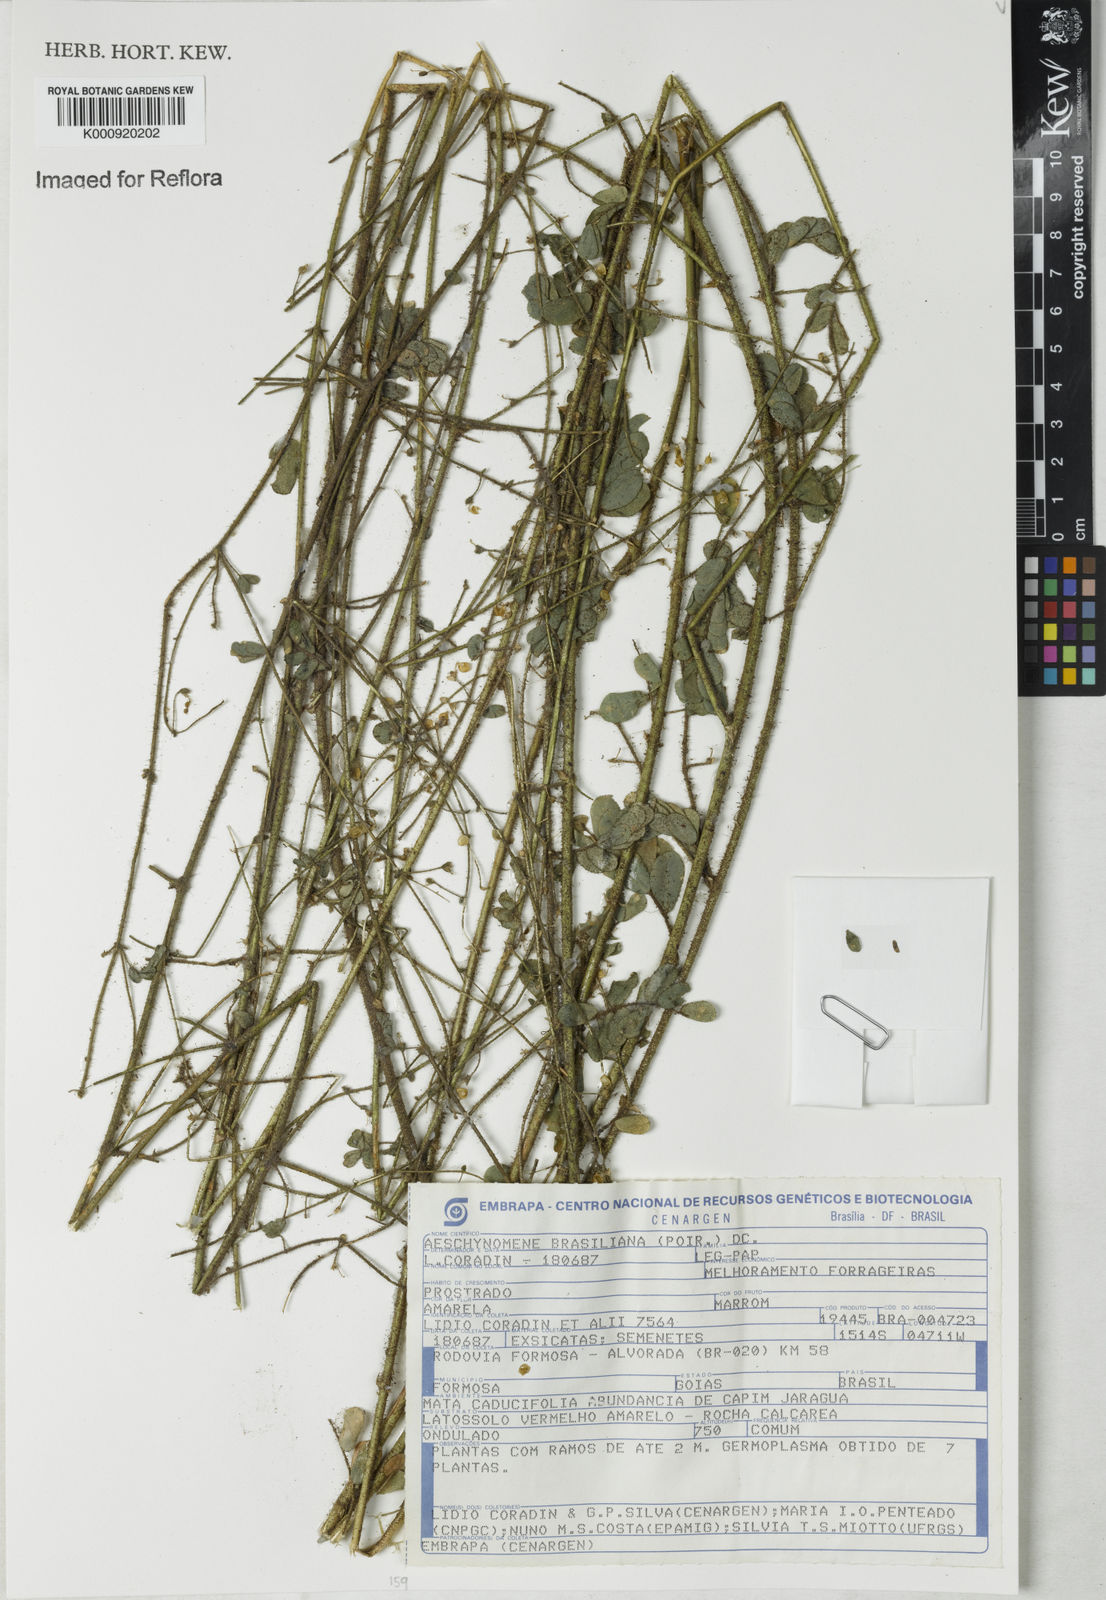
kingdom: Plantae
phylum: Tracheophyta
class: Magnoliopsida
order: Fabales
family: Fabaceae
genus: Ctenodon
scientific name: Ctenodon brasilianus
